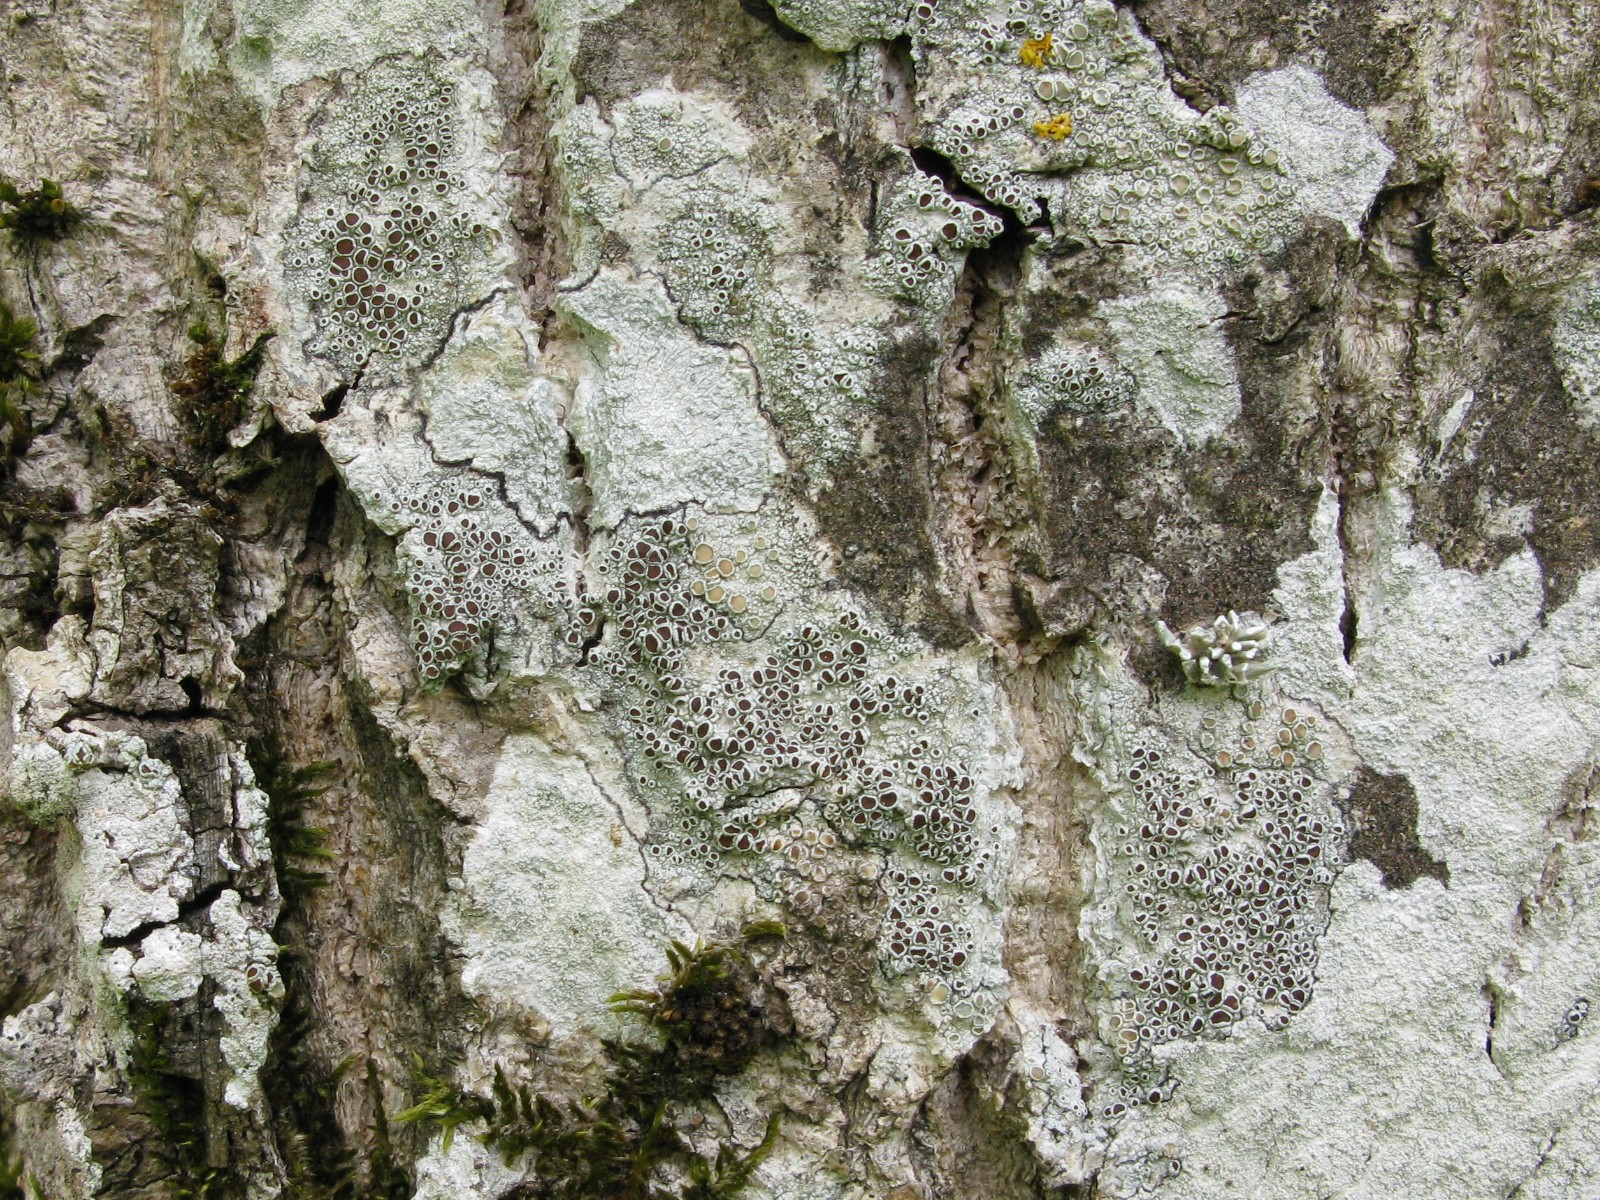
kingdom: Fungi
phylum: Ascomycota
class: Lecanoromycetes
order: Lecanorales
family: Lecanoraceae
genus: Lecanora
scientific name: Lecanora argentata
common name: sølv-kantskivelav
